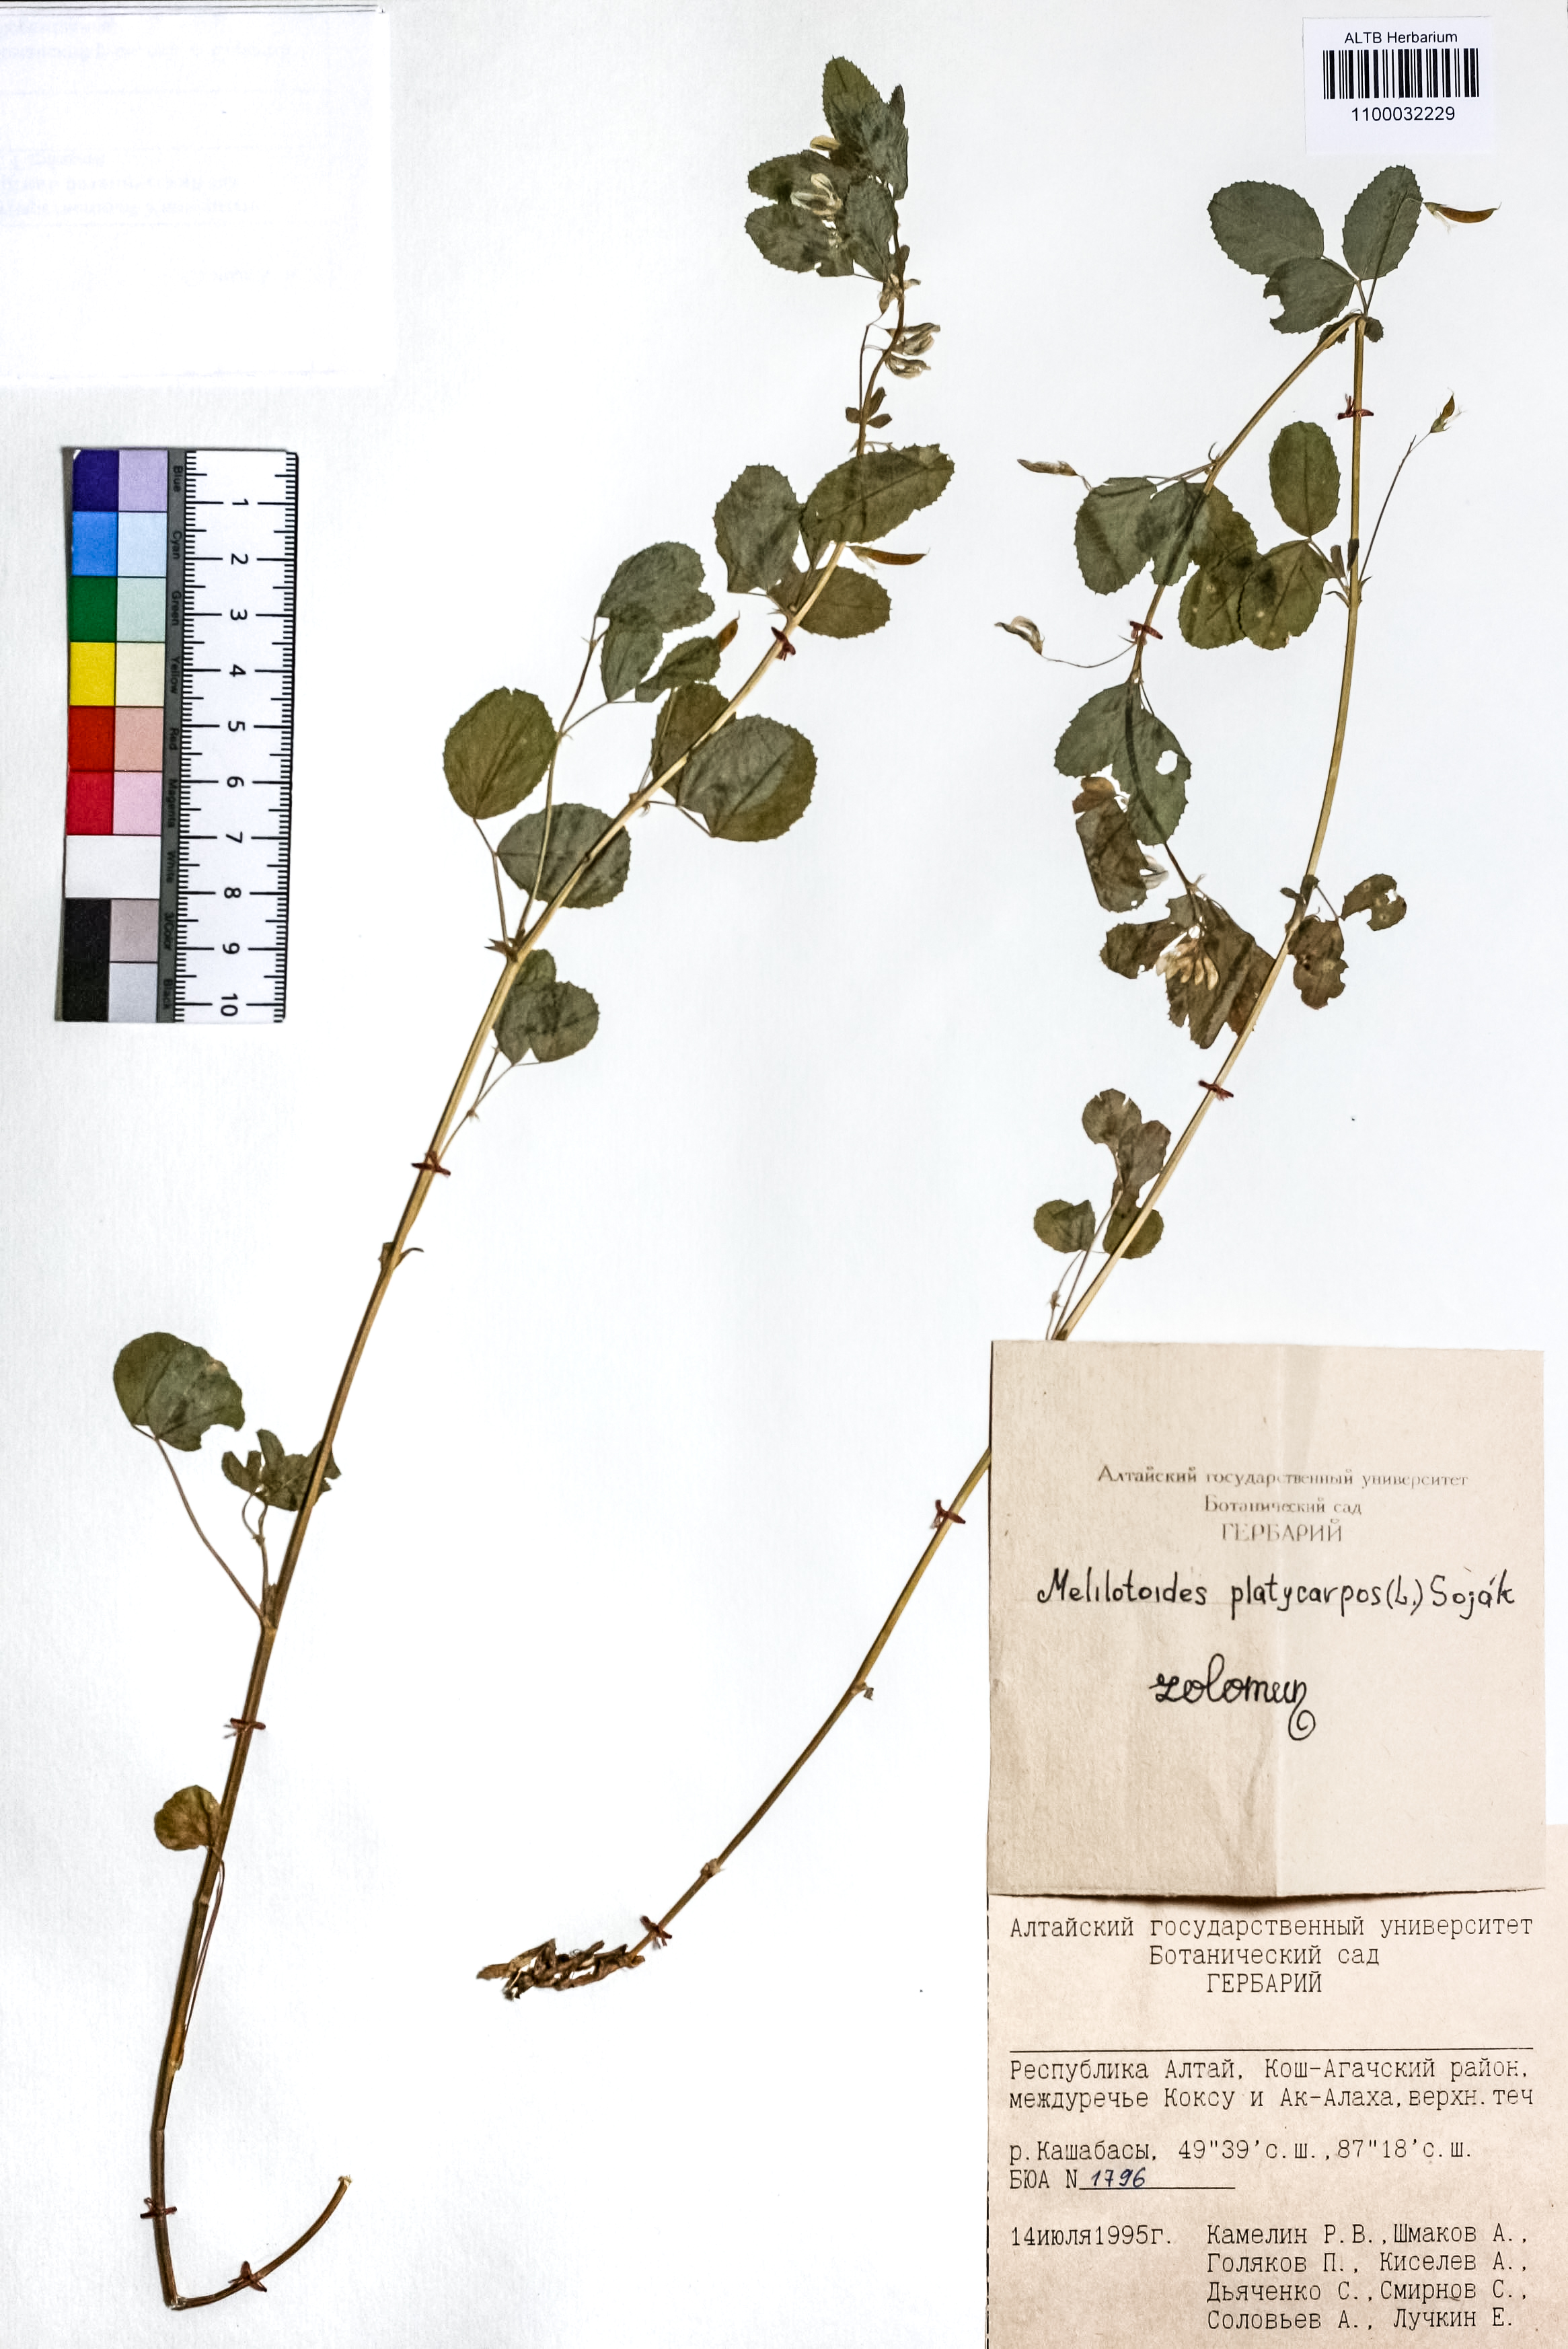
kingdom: Plantae
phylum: Tracheophyta
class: Magnoliopsida
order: Fabales
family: Fabaceae
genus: Medicago
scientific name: Medicago platycarpos
